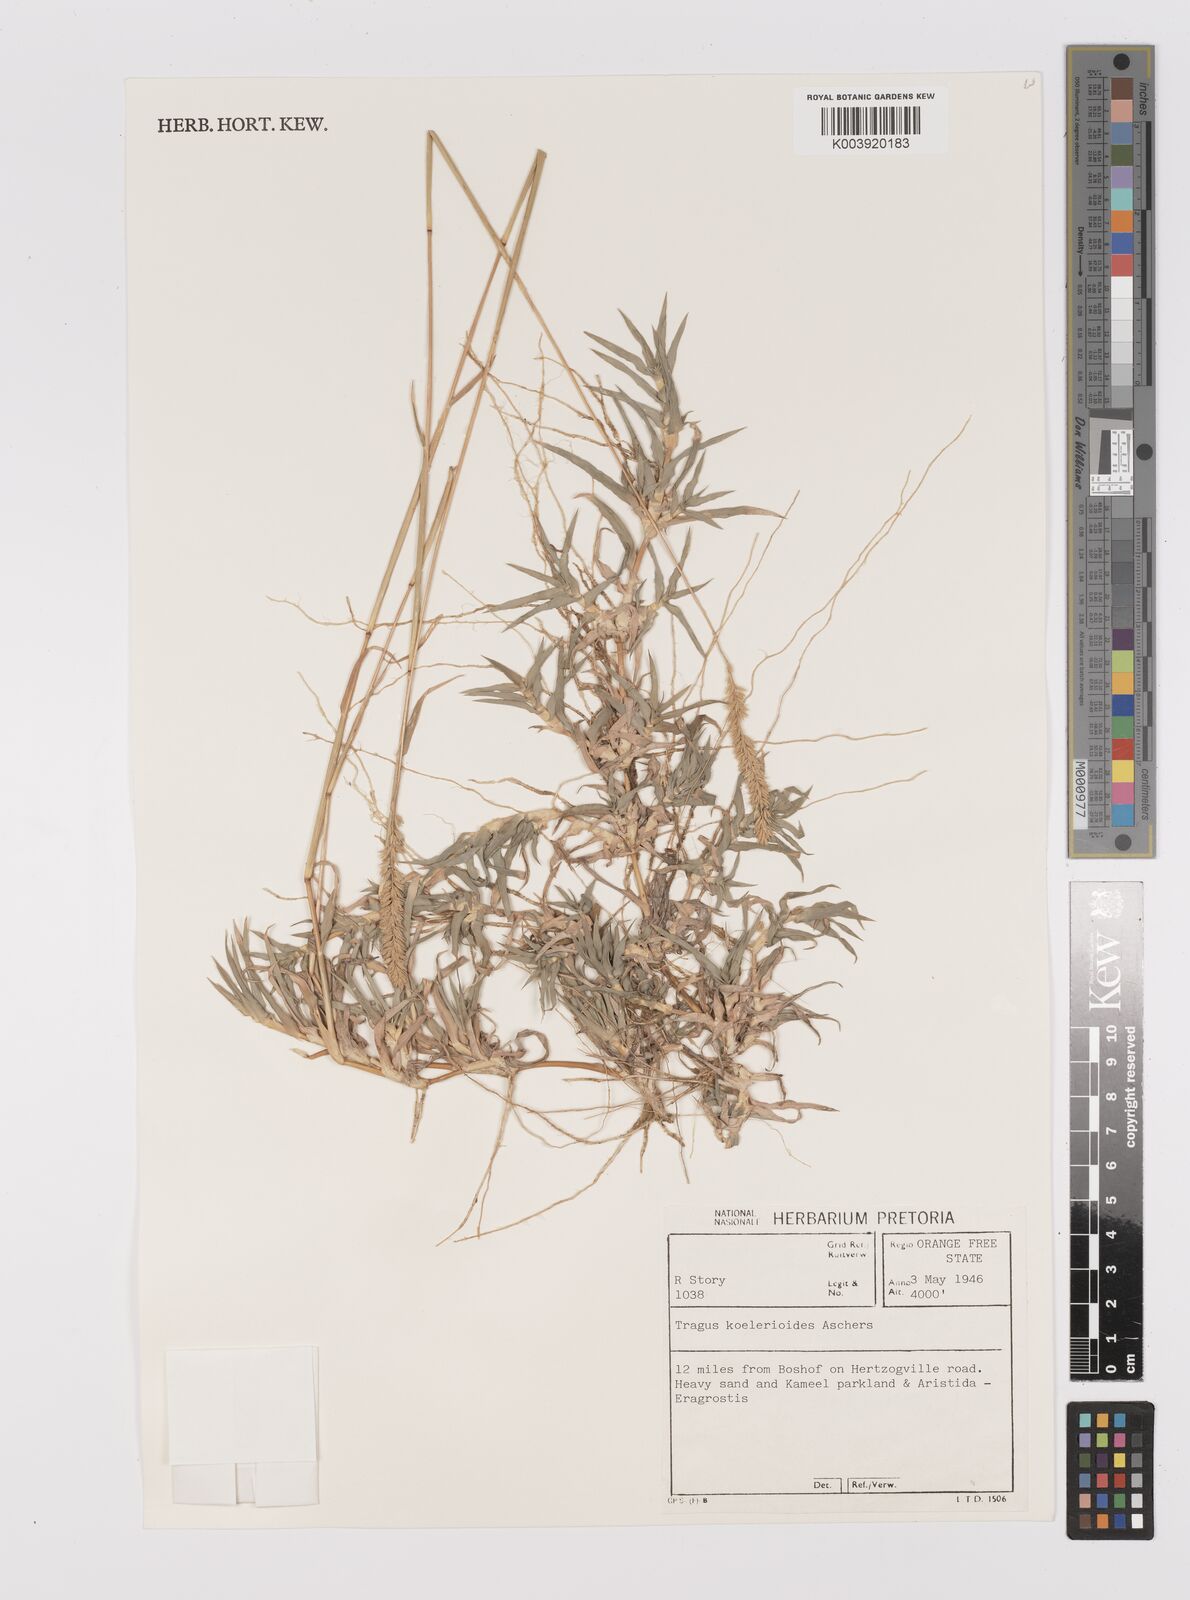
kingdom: Plantae
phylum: Tracheophyta
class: Liliopsida
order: Poales
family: Poaceae
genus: Tragus
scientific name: Tragus koelerioides
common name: Creeping carrot-seed grass
